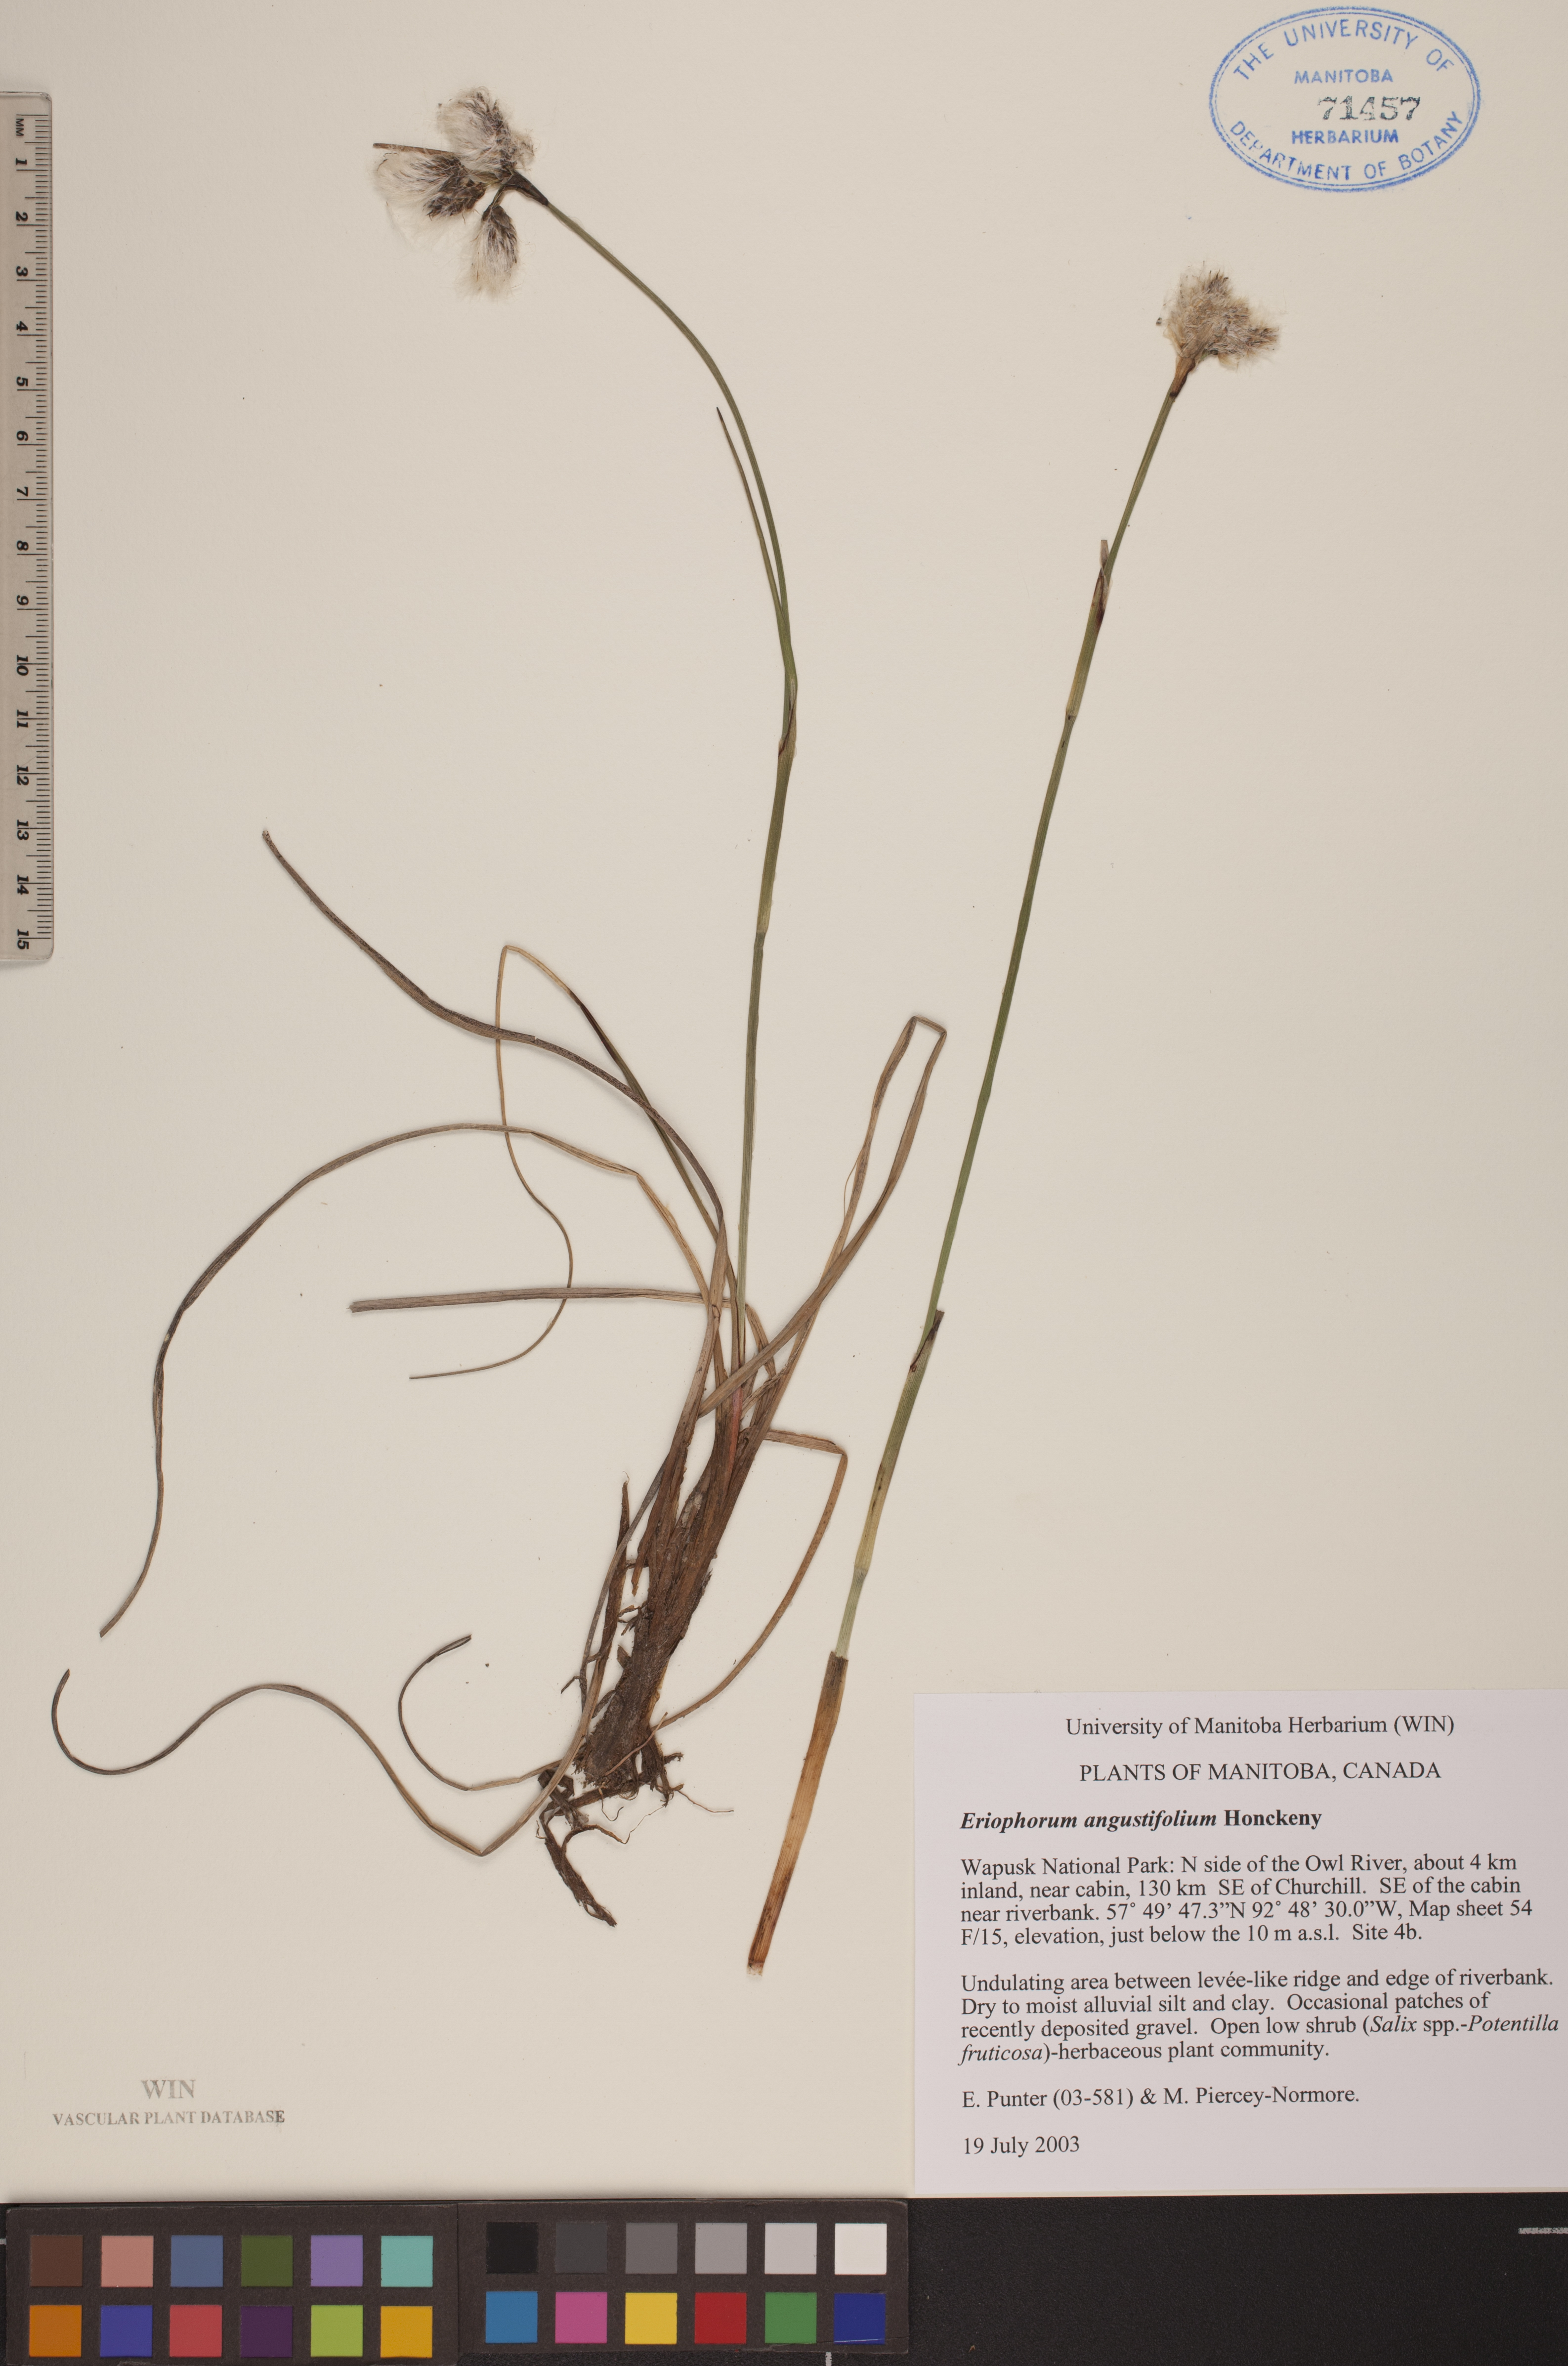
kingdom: Plantae
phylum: Tracheophyta
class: Liliopsida
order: Poales
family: Cyperaceae
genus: Eriophorum
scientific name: Eriophorum angustifolium
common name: Common cottongrass
